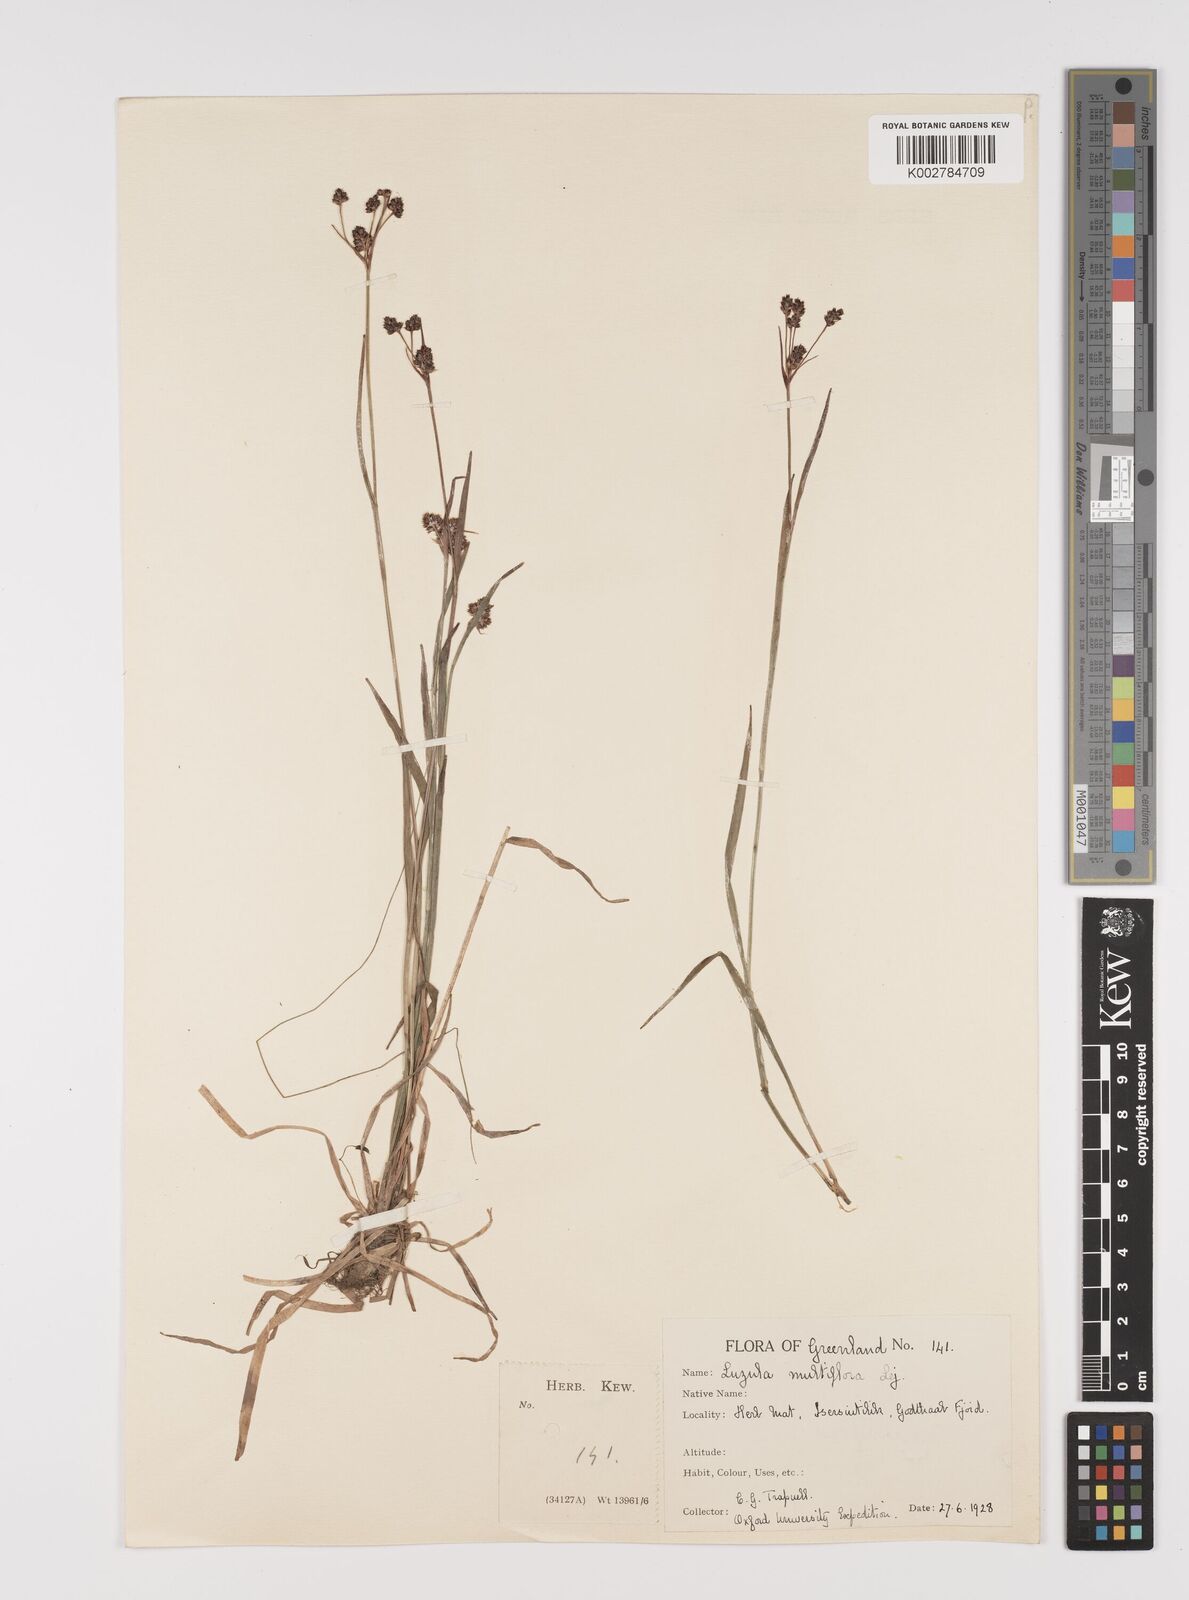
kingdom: Plantae
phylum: Tracheophyta
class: Liliopsida
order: Poales
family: Juncaceae
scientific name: Juncaceae
